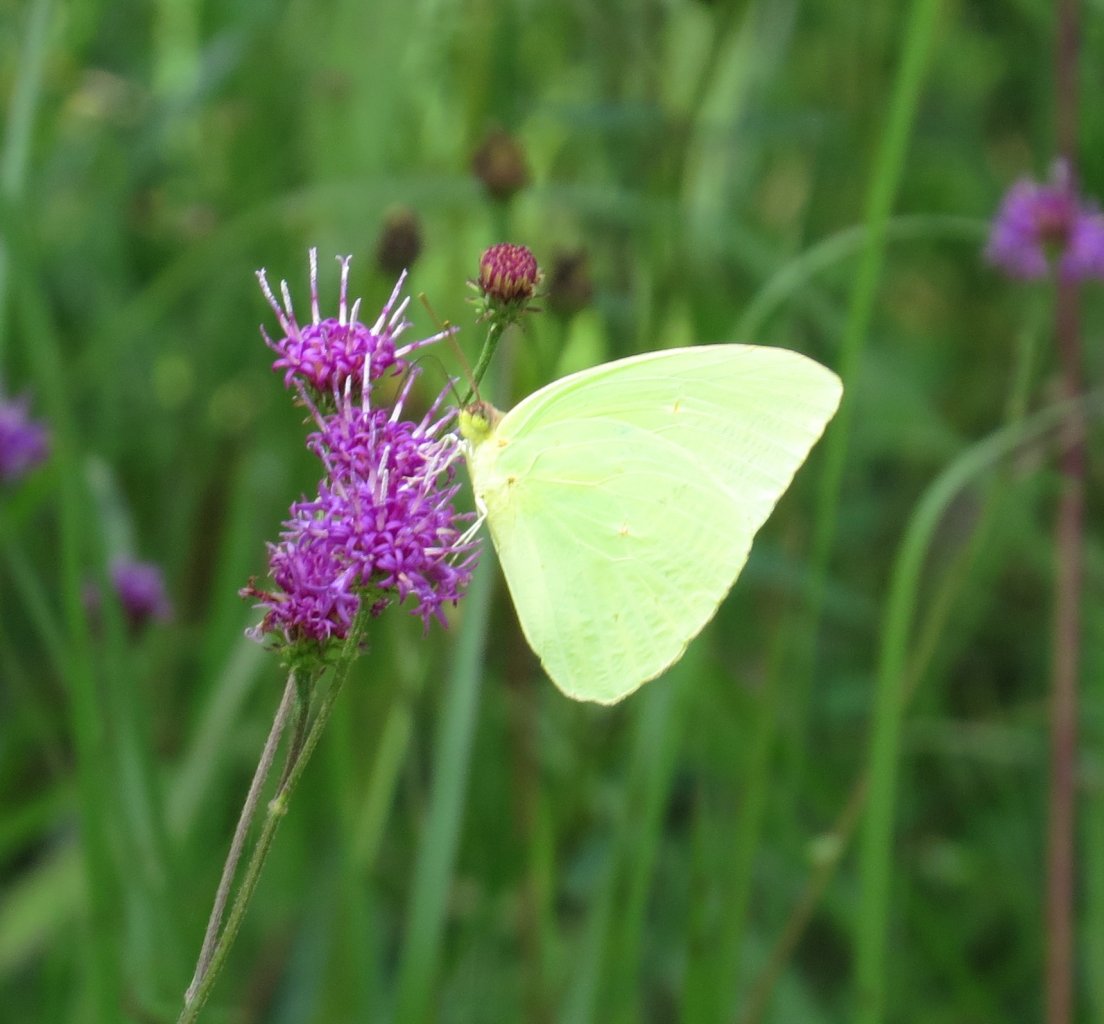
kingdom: Animalia
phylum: Arthropoda
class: Insecta
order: Lepidoptera
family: Pieridae
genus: Phoebis
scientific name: Phoebis sennae
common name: Cloudless Sulphur
